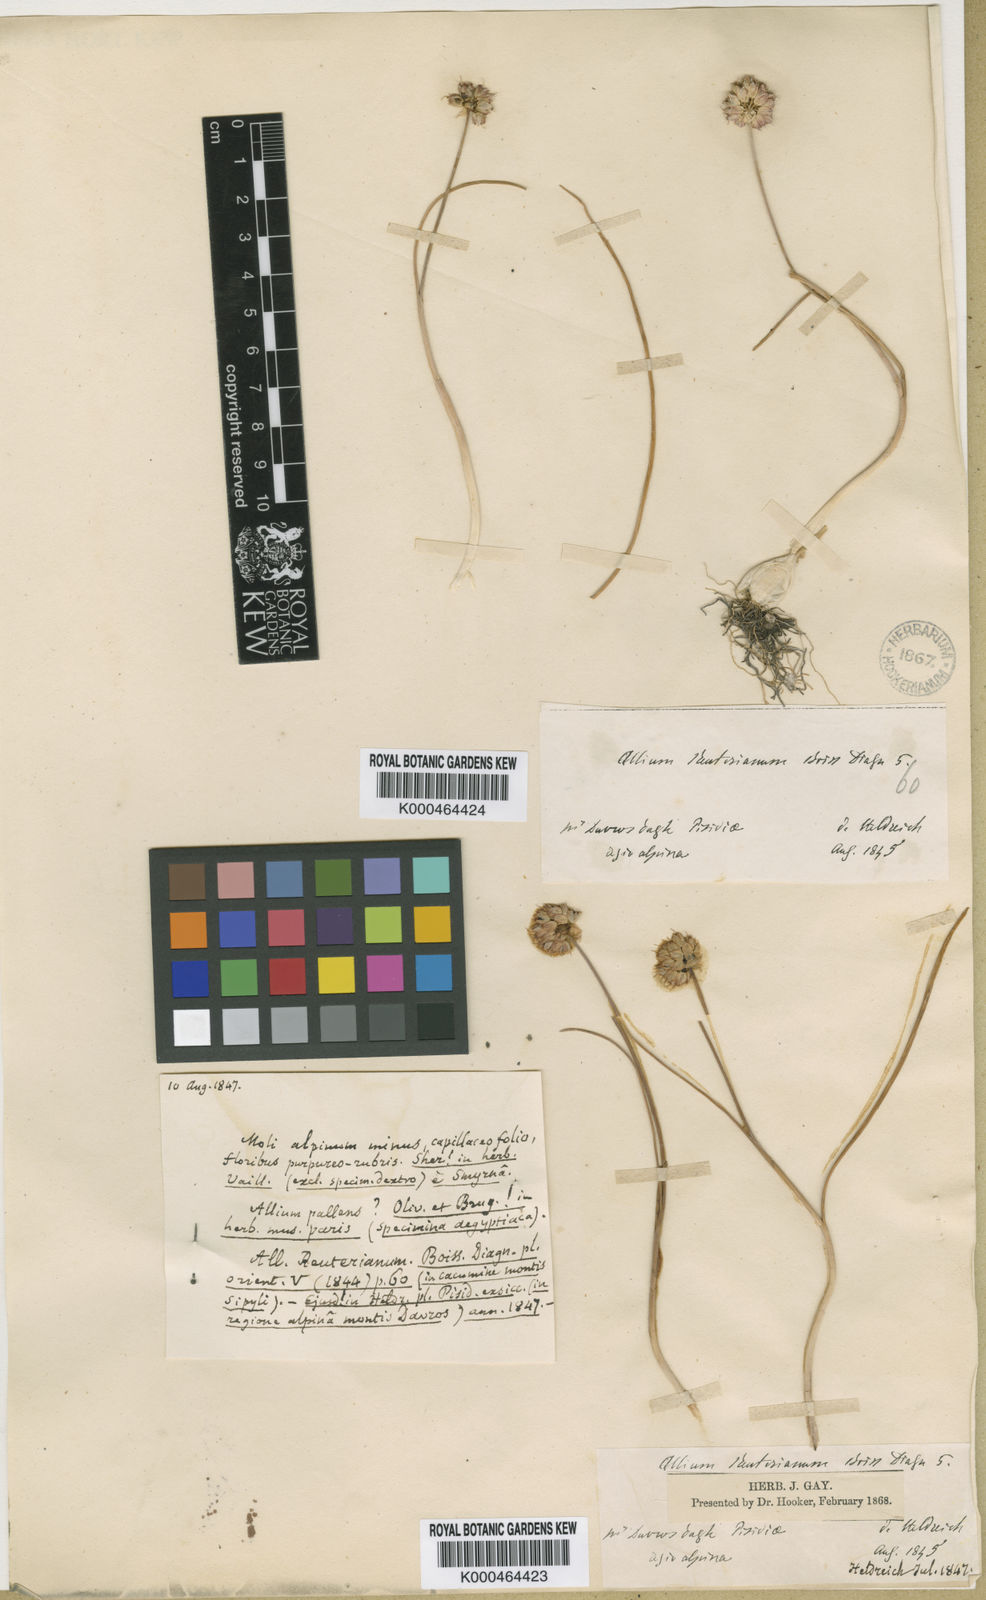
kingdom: Plantae
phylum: Tracheophyta
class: Liliopsida
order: Asparagales
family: Amaryllidaceae
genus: Allium
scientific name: Allium reuterianum
